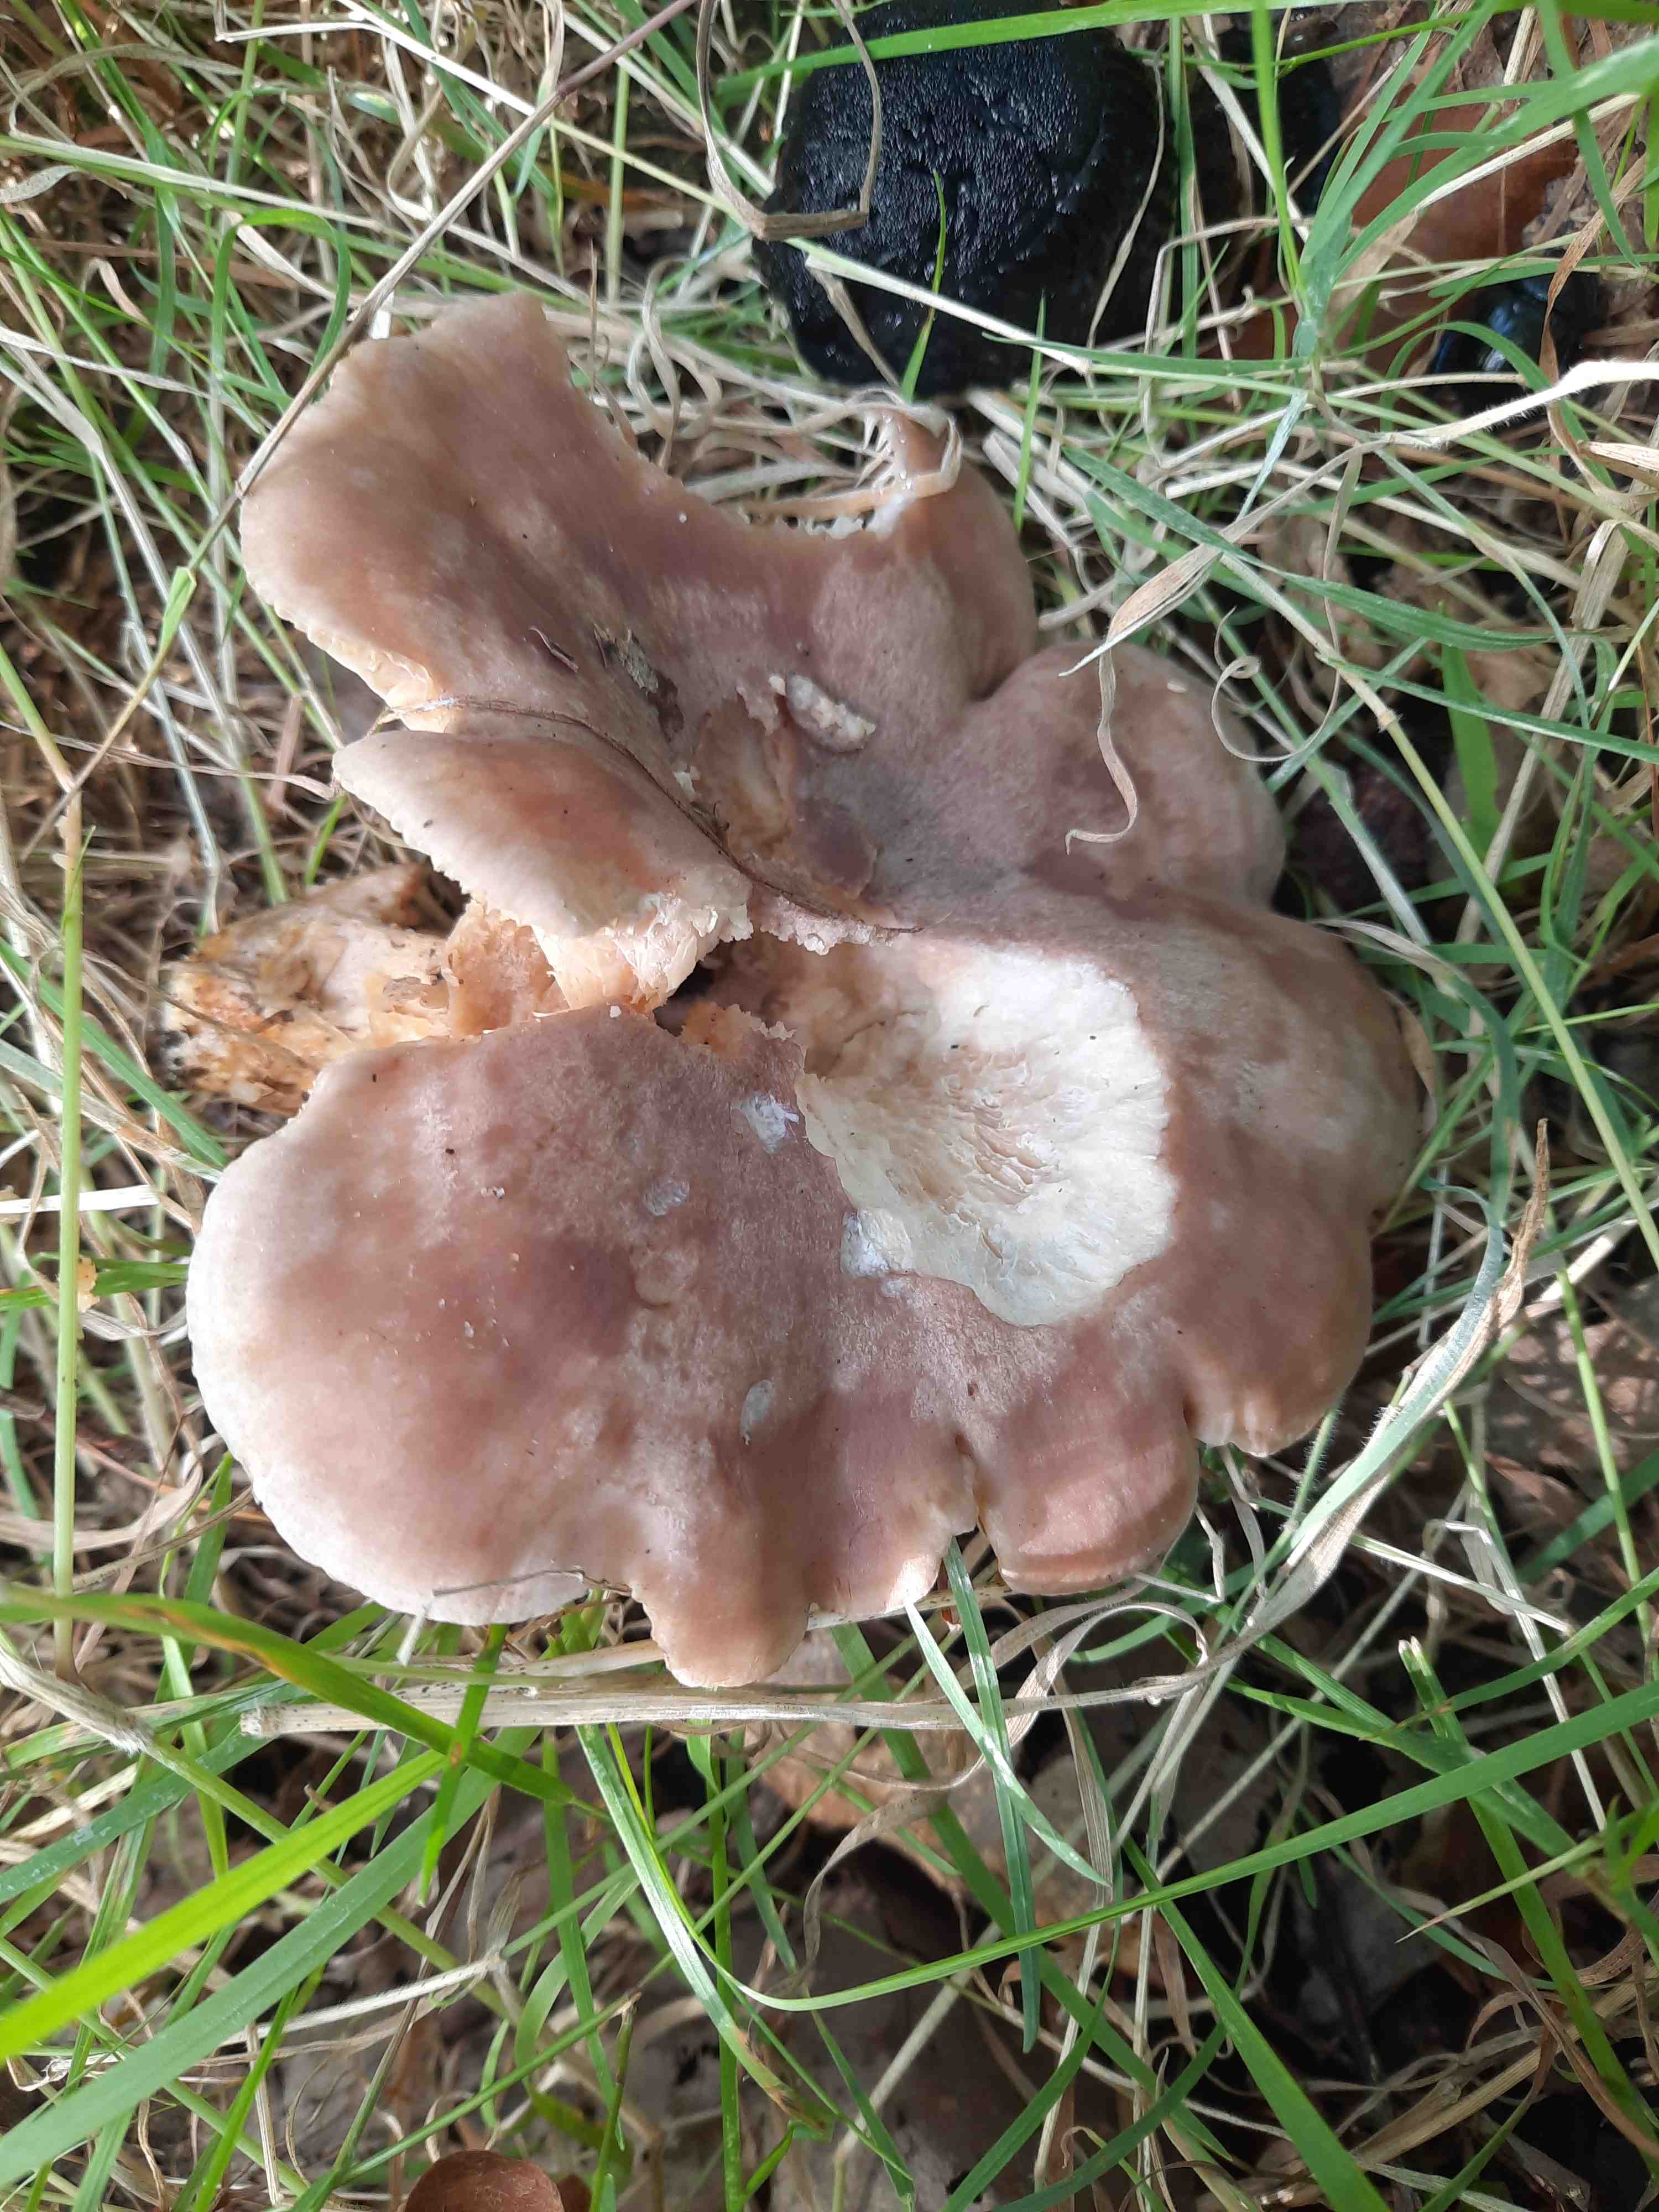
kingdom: Fungi
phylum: Basidiomycota
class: Agaricomycetes
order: Russulales
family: Russulaceae
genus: Lactarius
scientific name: Lactarius
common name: mælkehat
